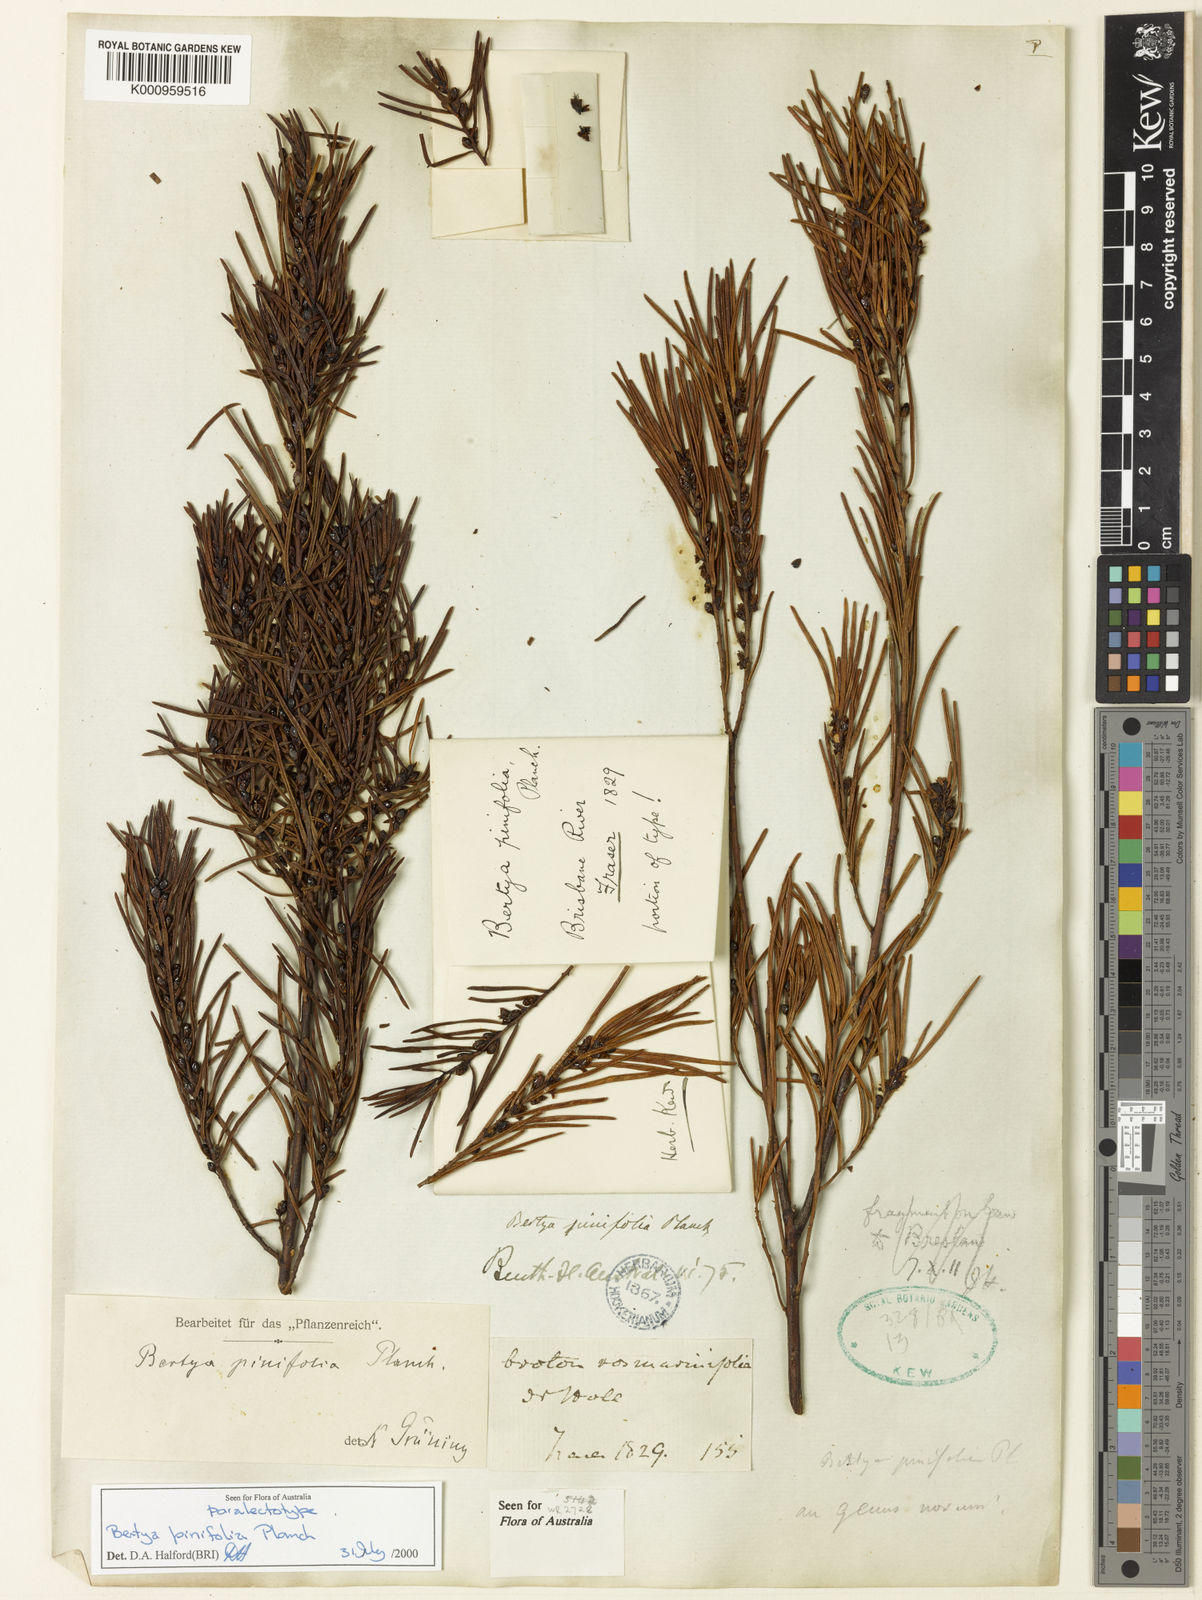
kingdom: Plantae
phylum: Tracheophyta
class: Magnoliopsida
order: Malpighiales
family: Euphorbiaceae
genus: Bertya
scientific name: Bertya pinifolia
